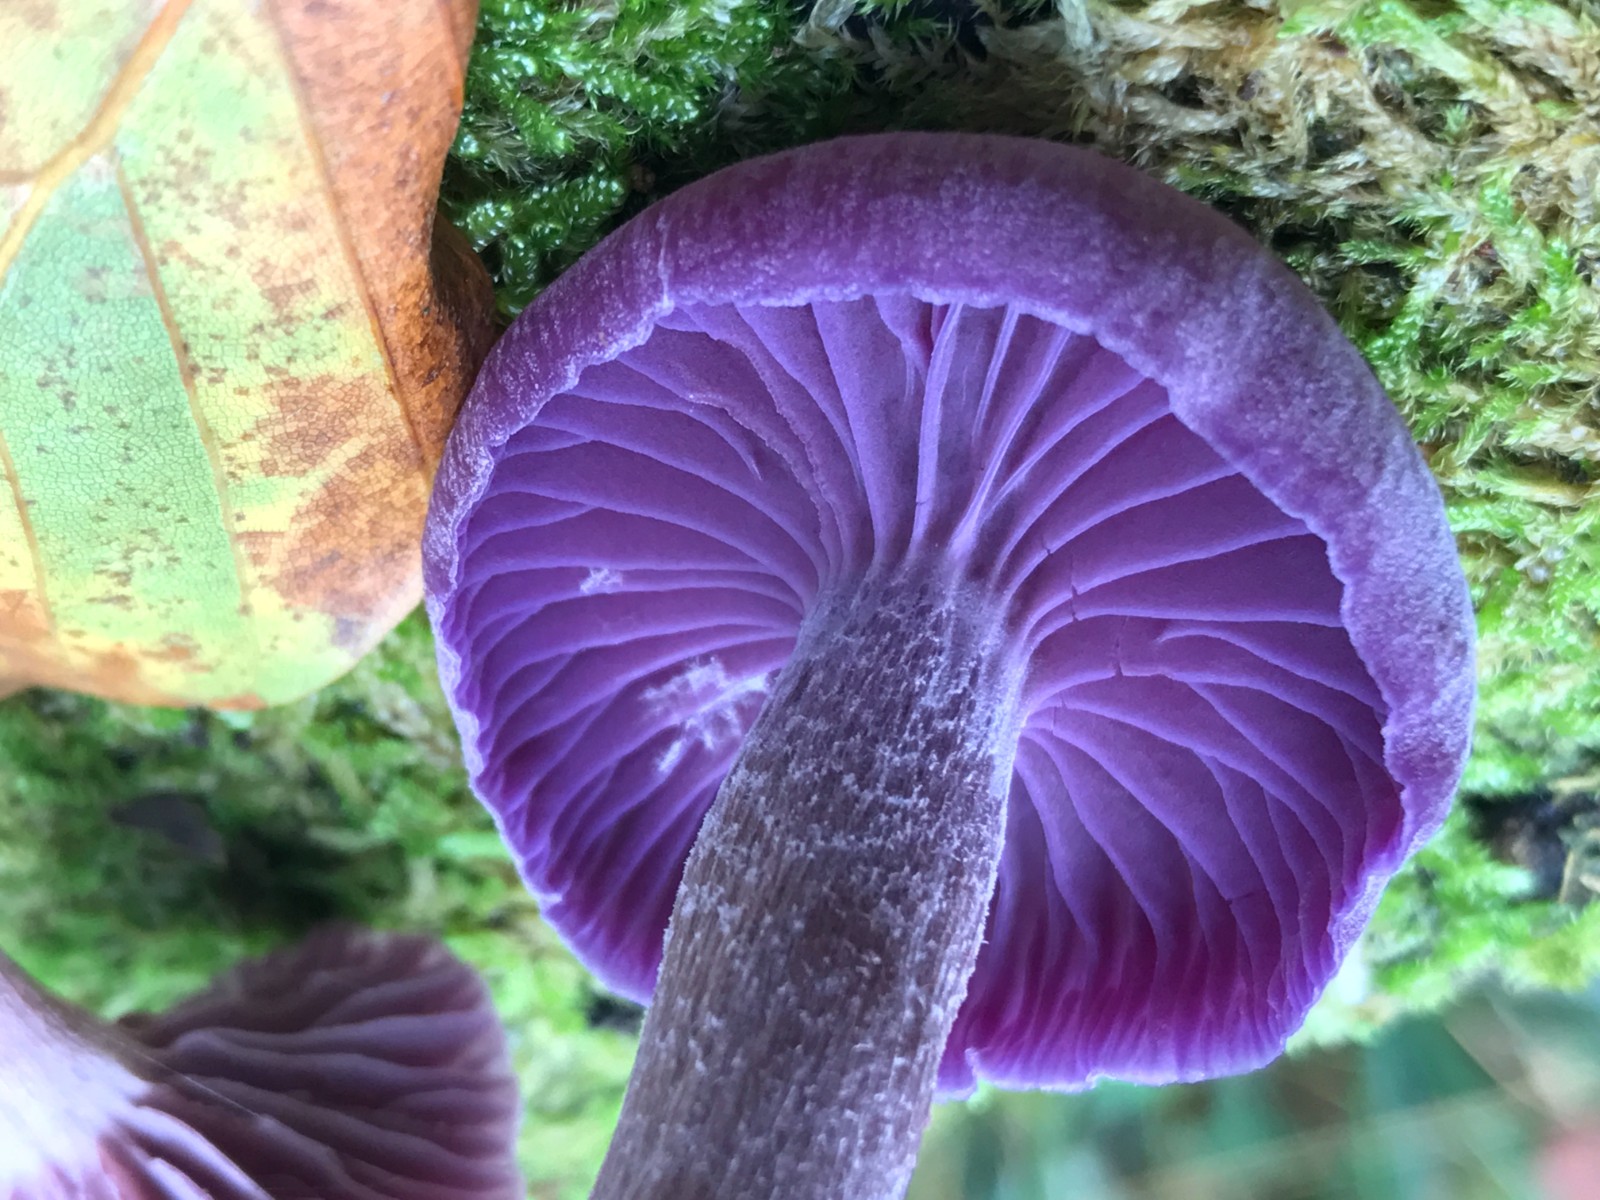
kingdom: Fungi
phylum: Basidiomycota
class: Agaricomycetes
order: Agaricales
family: Hydnangiaceae
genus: Laccaria
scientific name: Laccaria amethystina
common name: violet ametysthat
